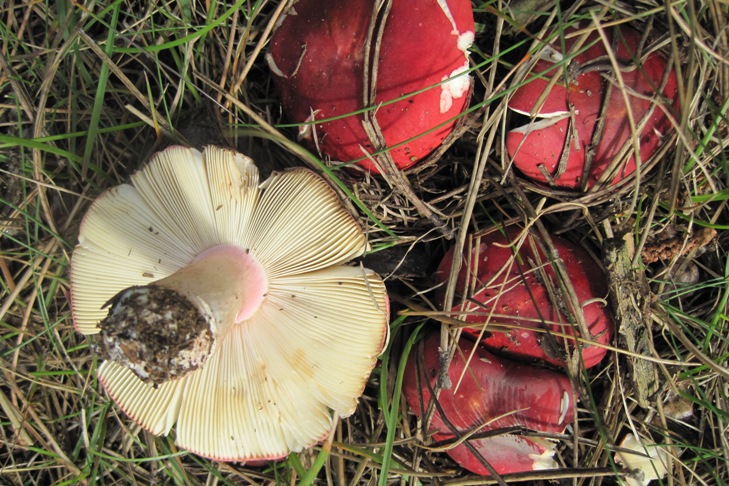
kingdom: Fungi
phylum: Basidiomycota
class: Agaricomycetes
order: Russulales
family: Russulaceae
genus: Russula
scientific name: Russula xerampelina
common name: hummer-skørhat
